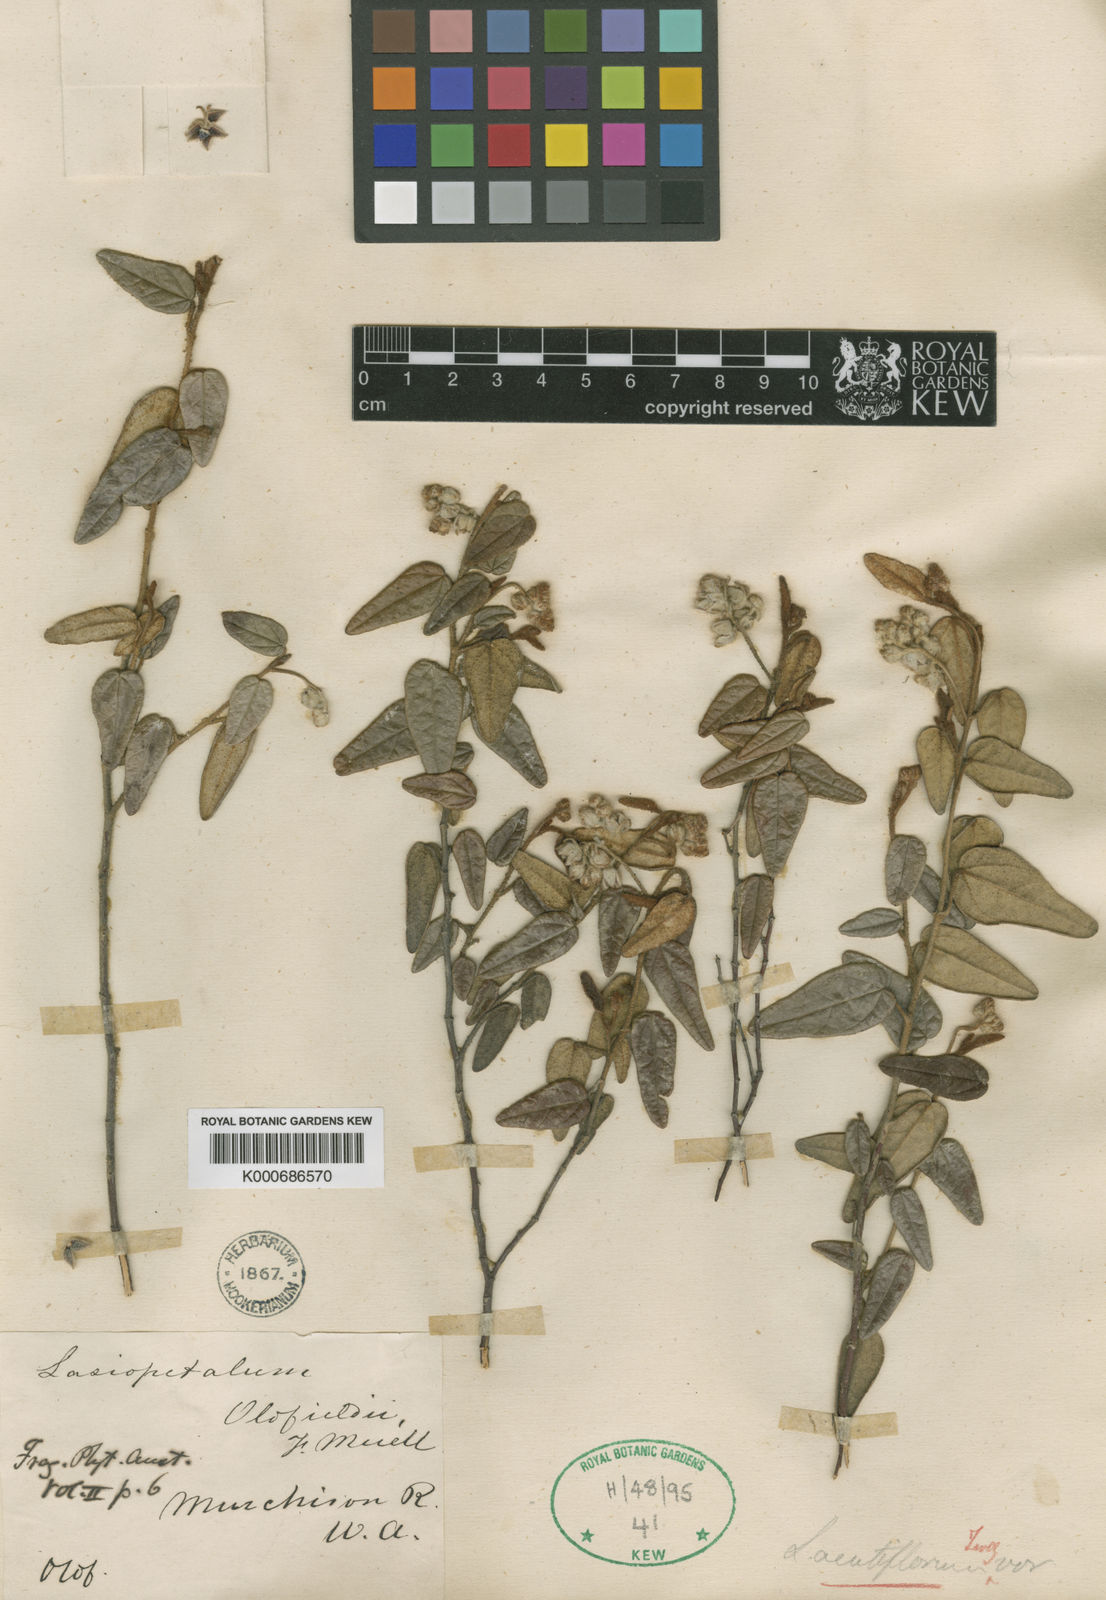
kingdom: Plantae
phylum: Tracheophyta
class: Magnoliopsida
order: Malvales
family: Malvaceae
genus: Lasiopetalum
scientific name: Lasiopetalum oldfieldii
